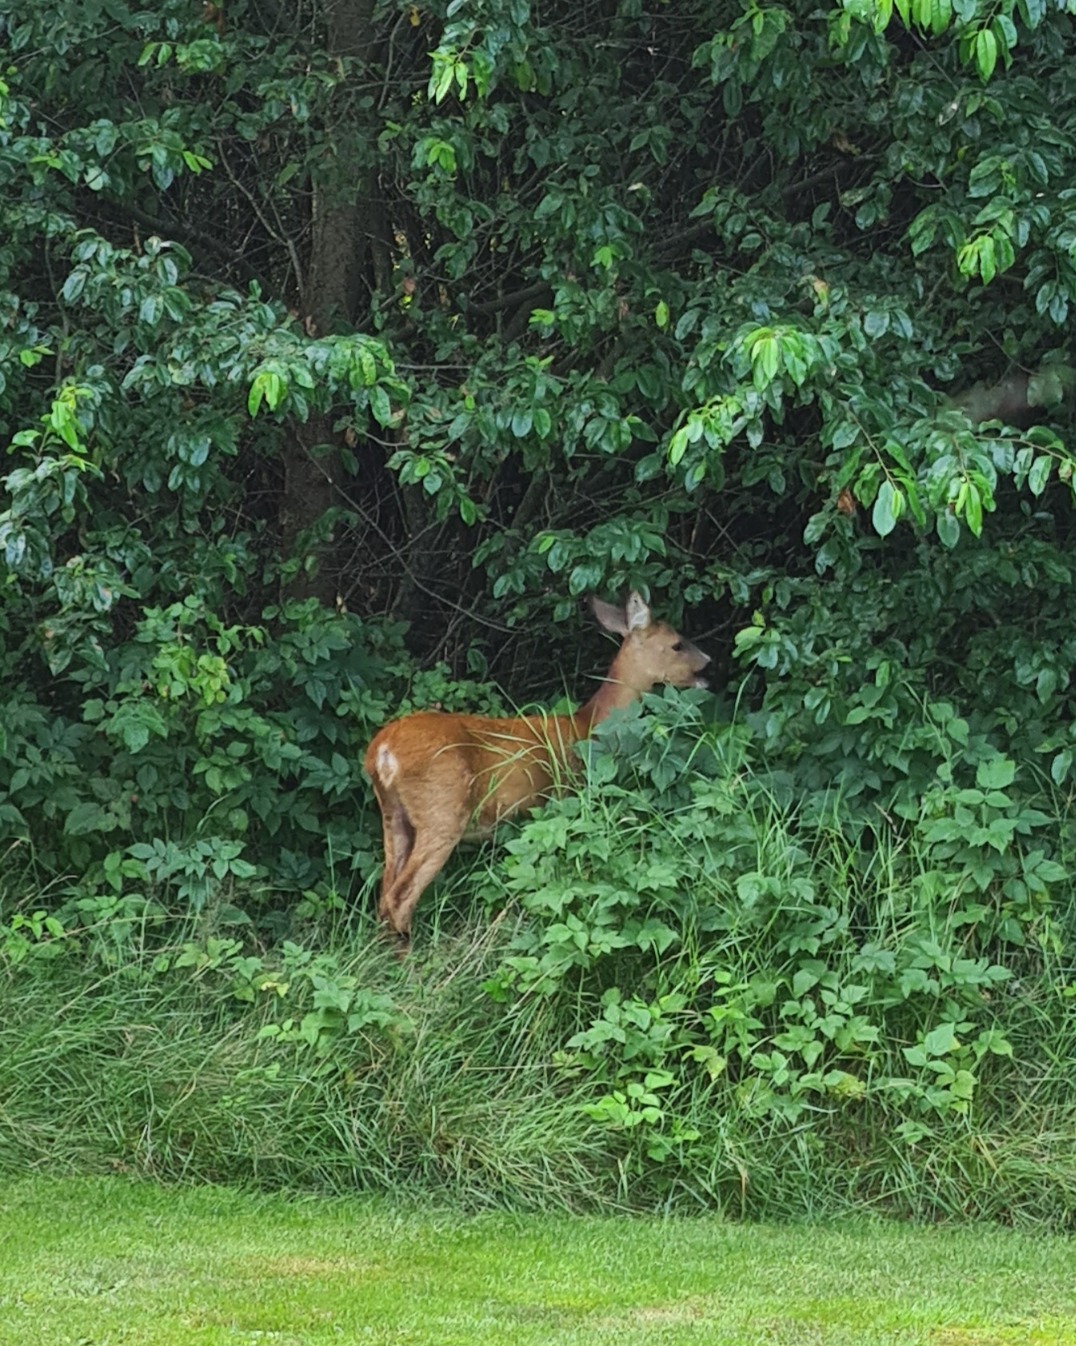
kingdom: Animalia
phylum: Chordata
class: Mammalia
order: Artiodactyla
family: Cervidae
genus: Capreolus
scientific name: Capreolus capreolus
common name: Rådyr
